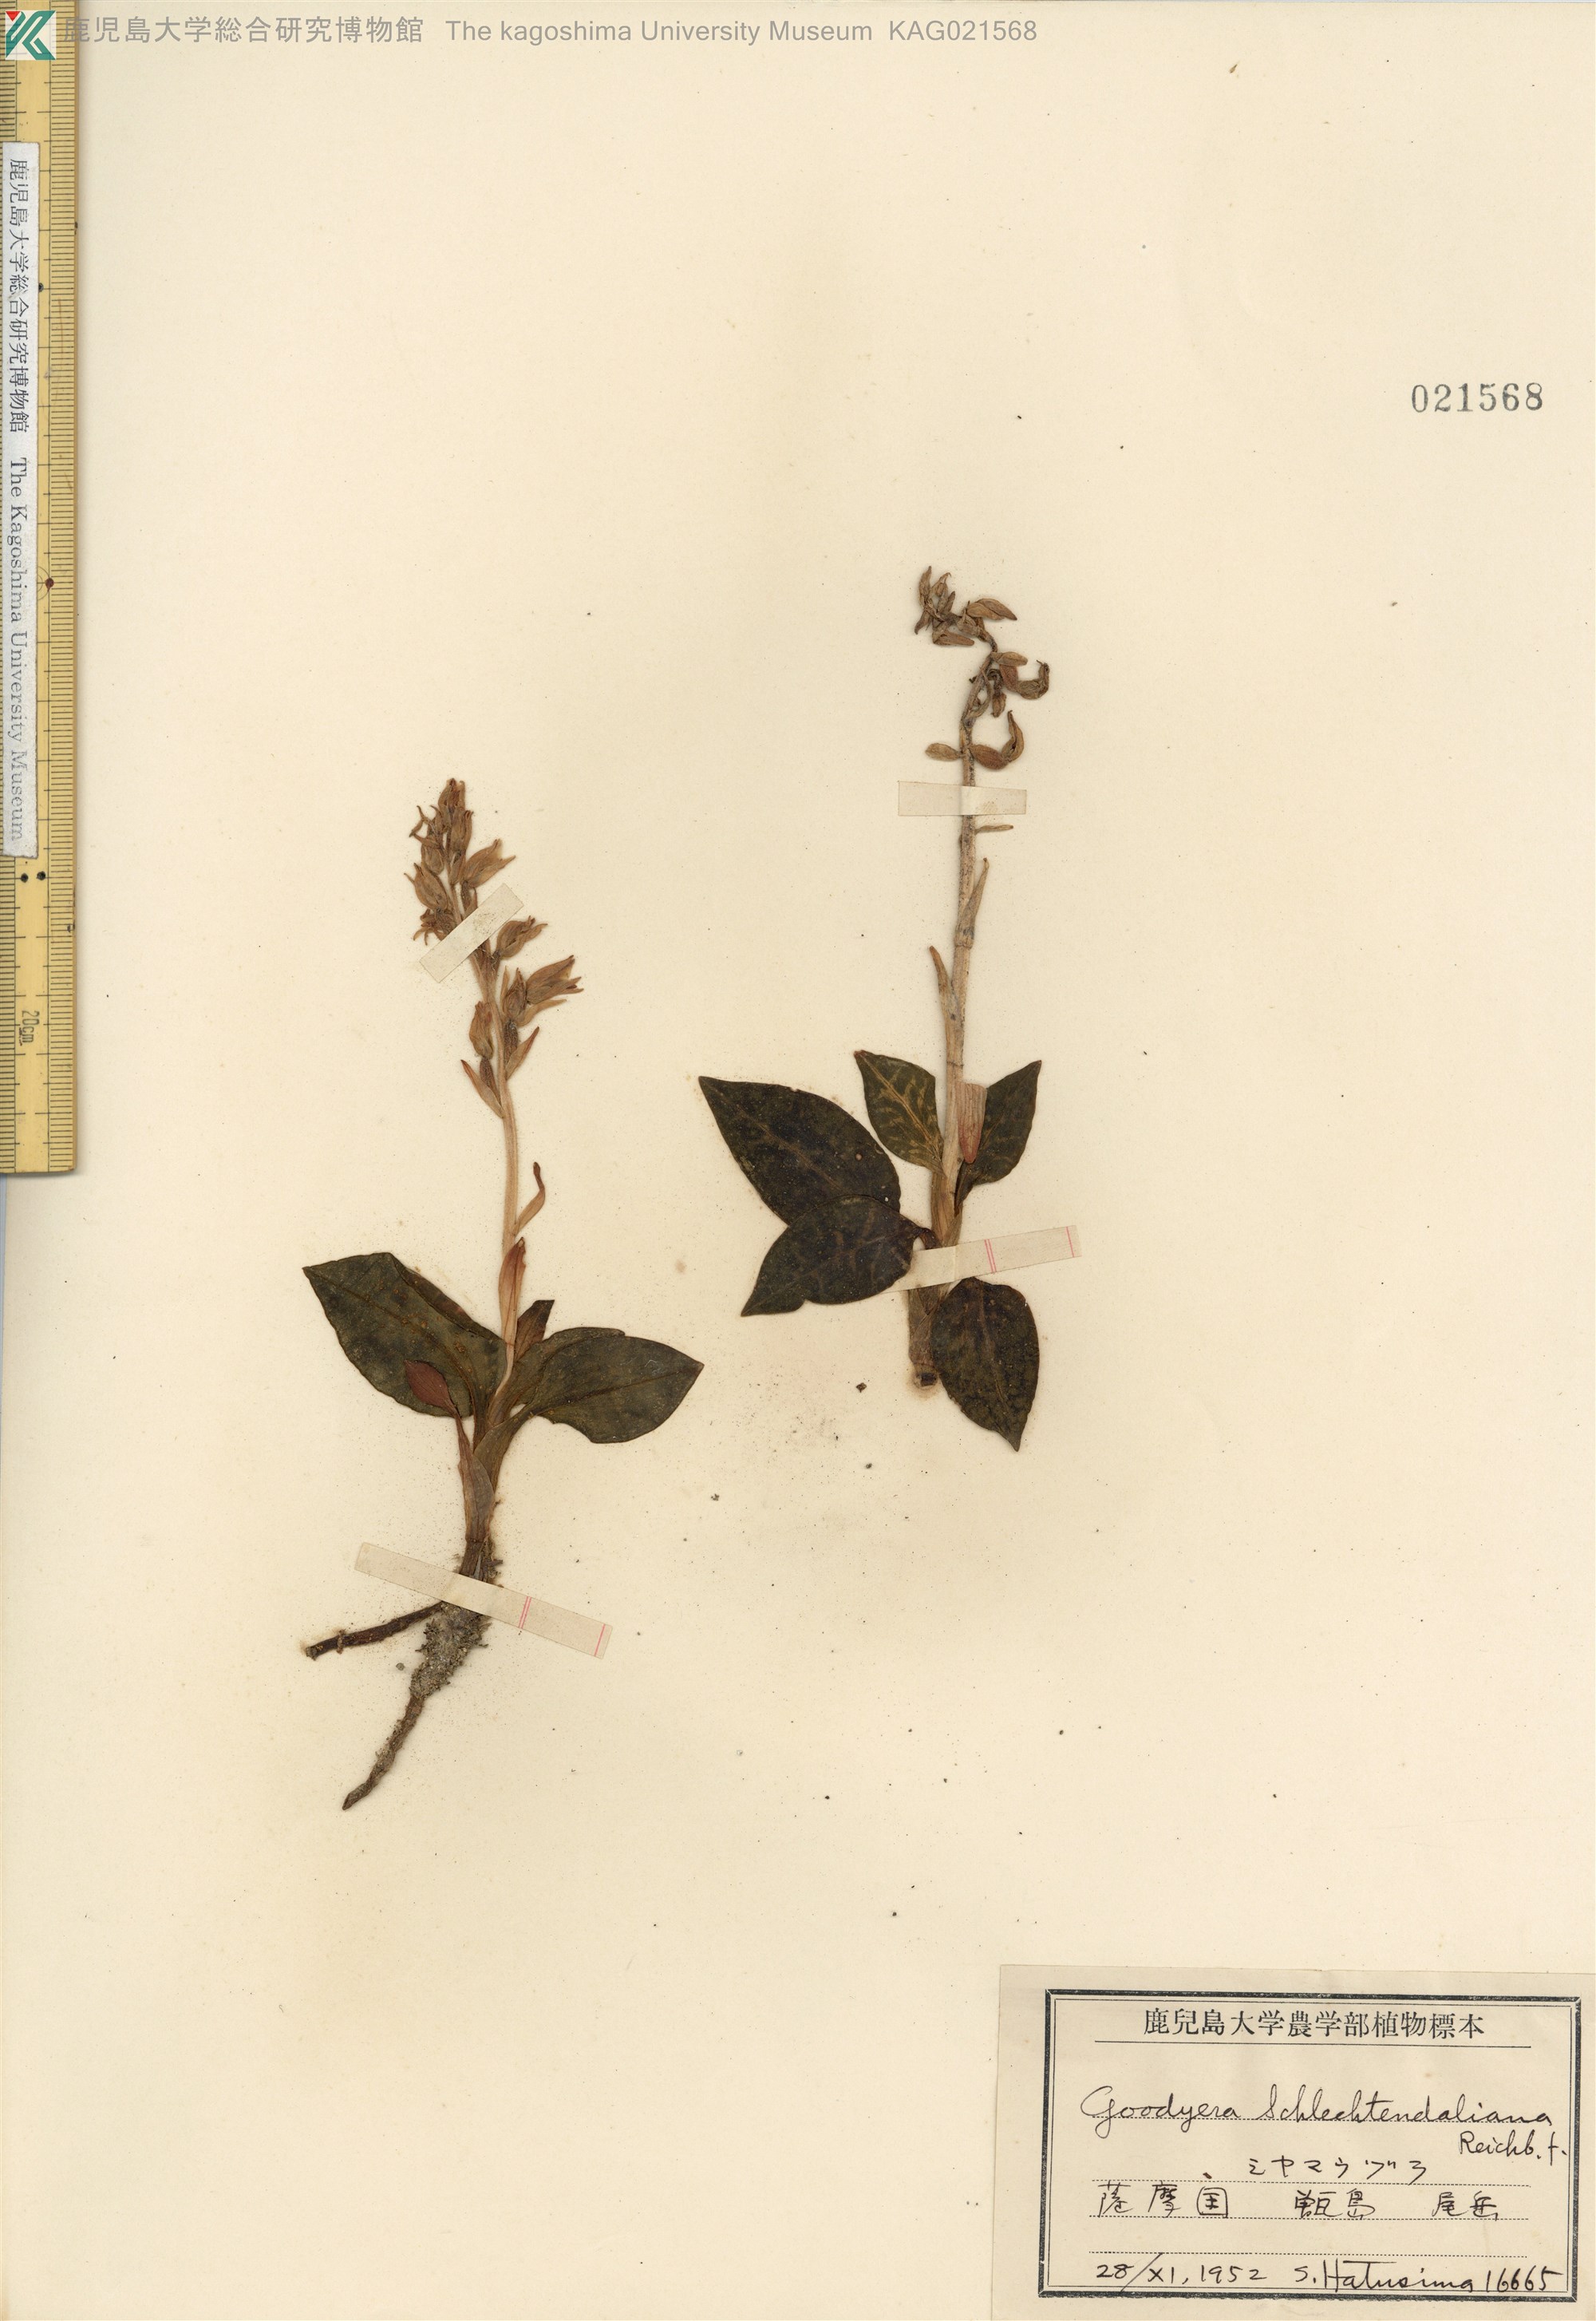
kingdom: Plantae
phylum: Tracheophyta
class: Liliopsida
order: Asparagales
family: Orchidaceae
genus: Goodyera
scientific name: Goodyera schlechtendaliana
